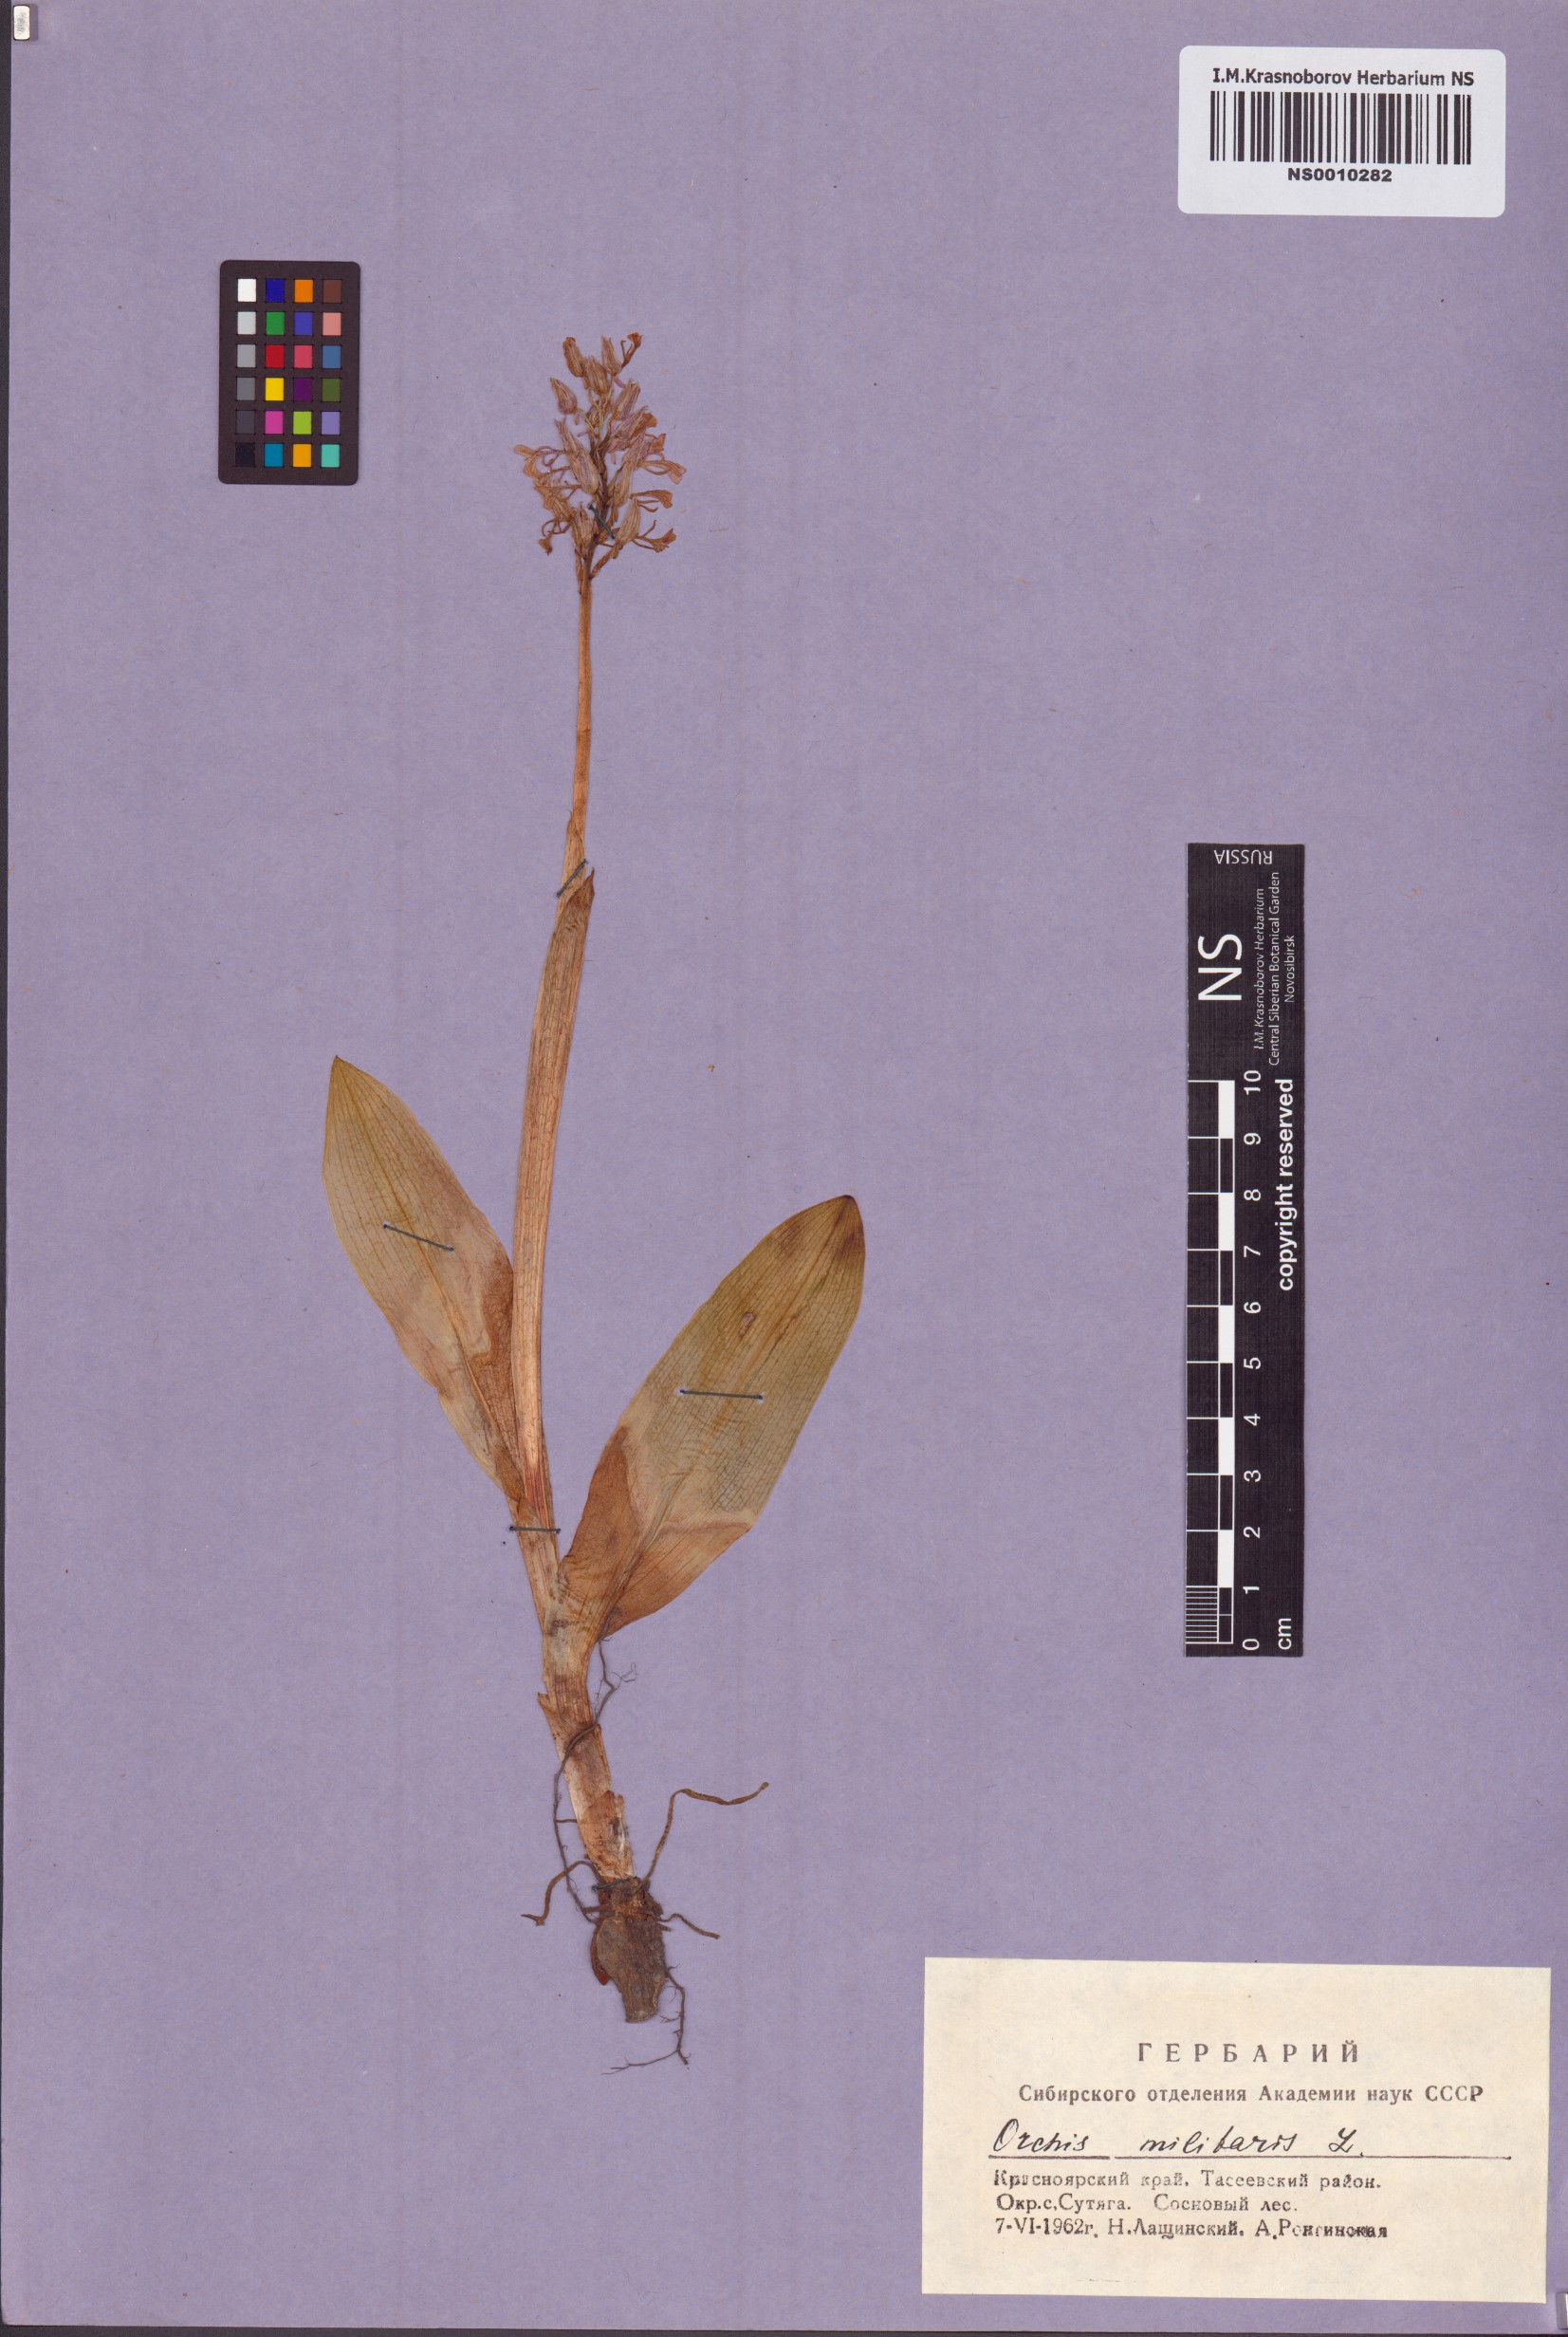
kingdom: Plantae
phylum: Tracheophyta
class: Liliopsida
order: Asparagales
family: Orchidaceae
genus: Orchis
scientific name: Orchis militaris
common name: Military orchid
